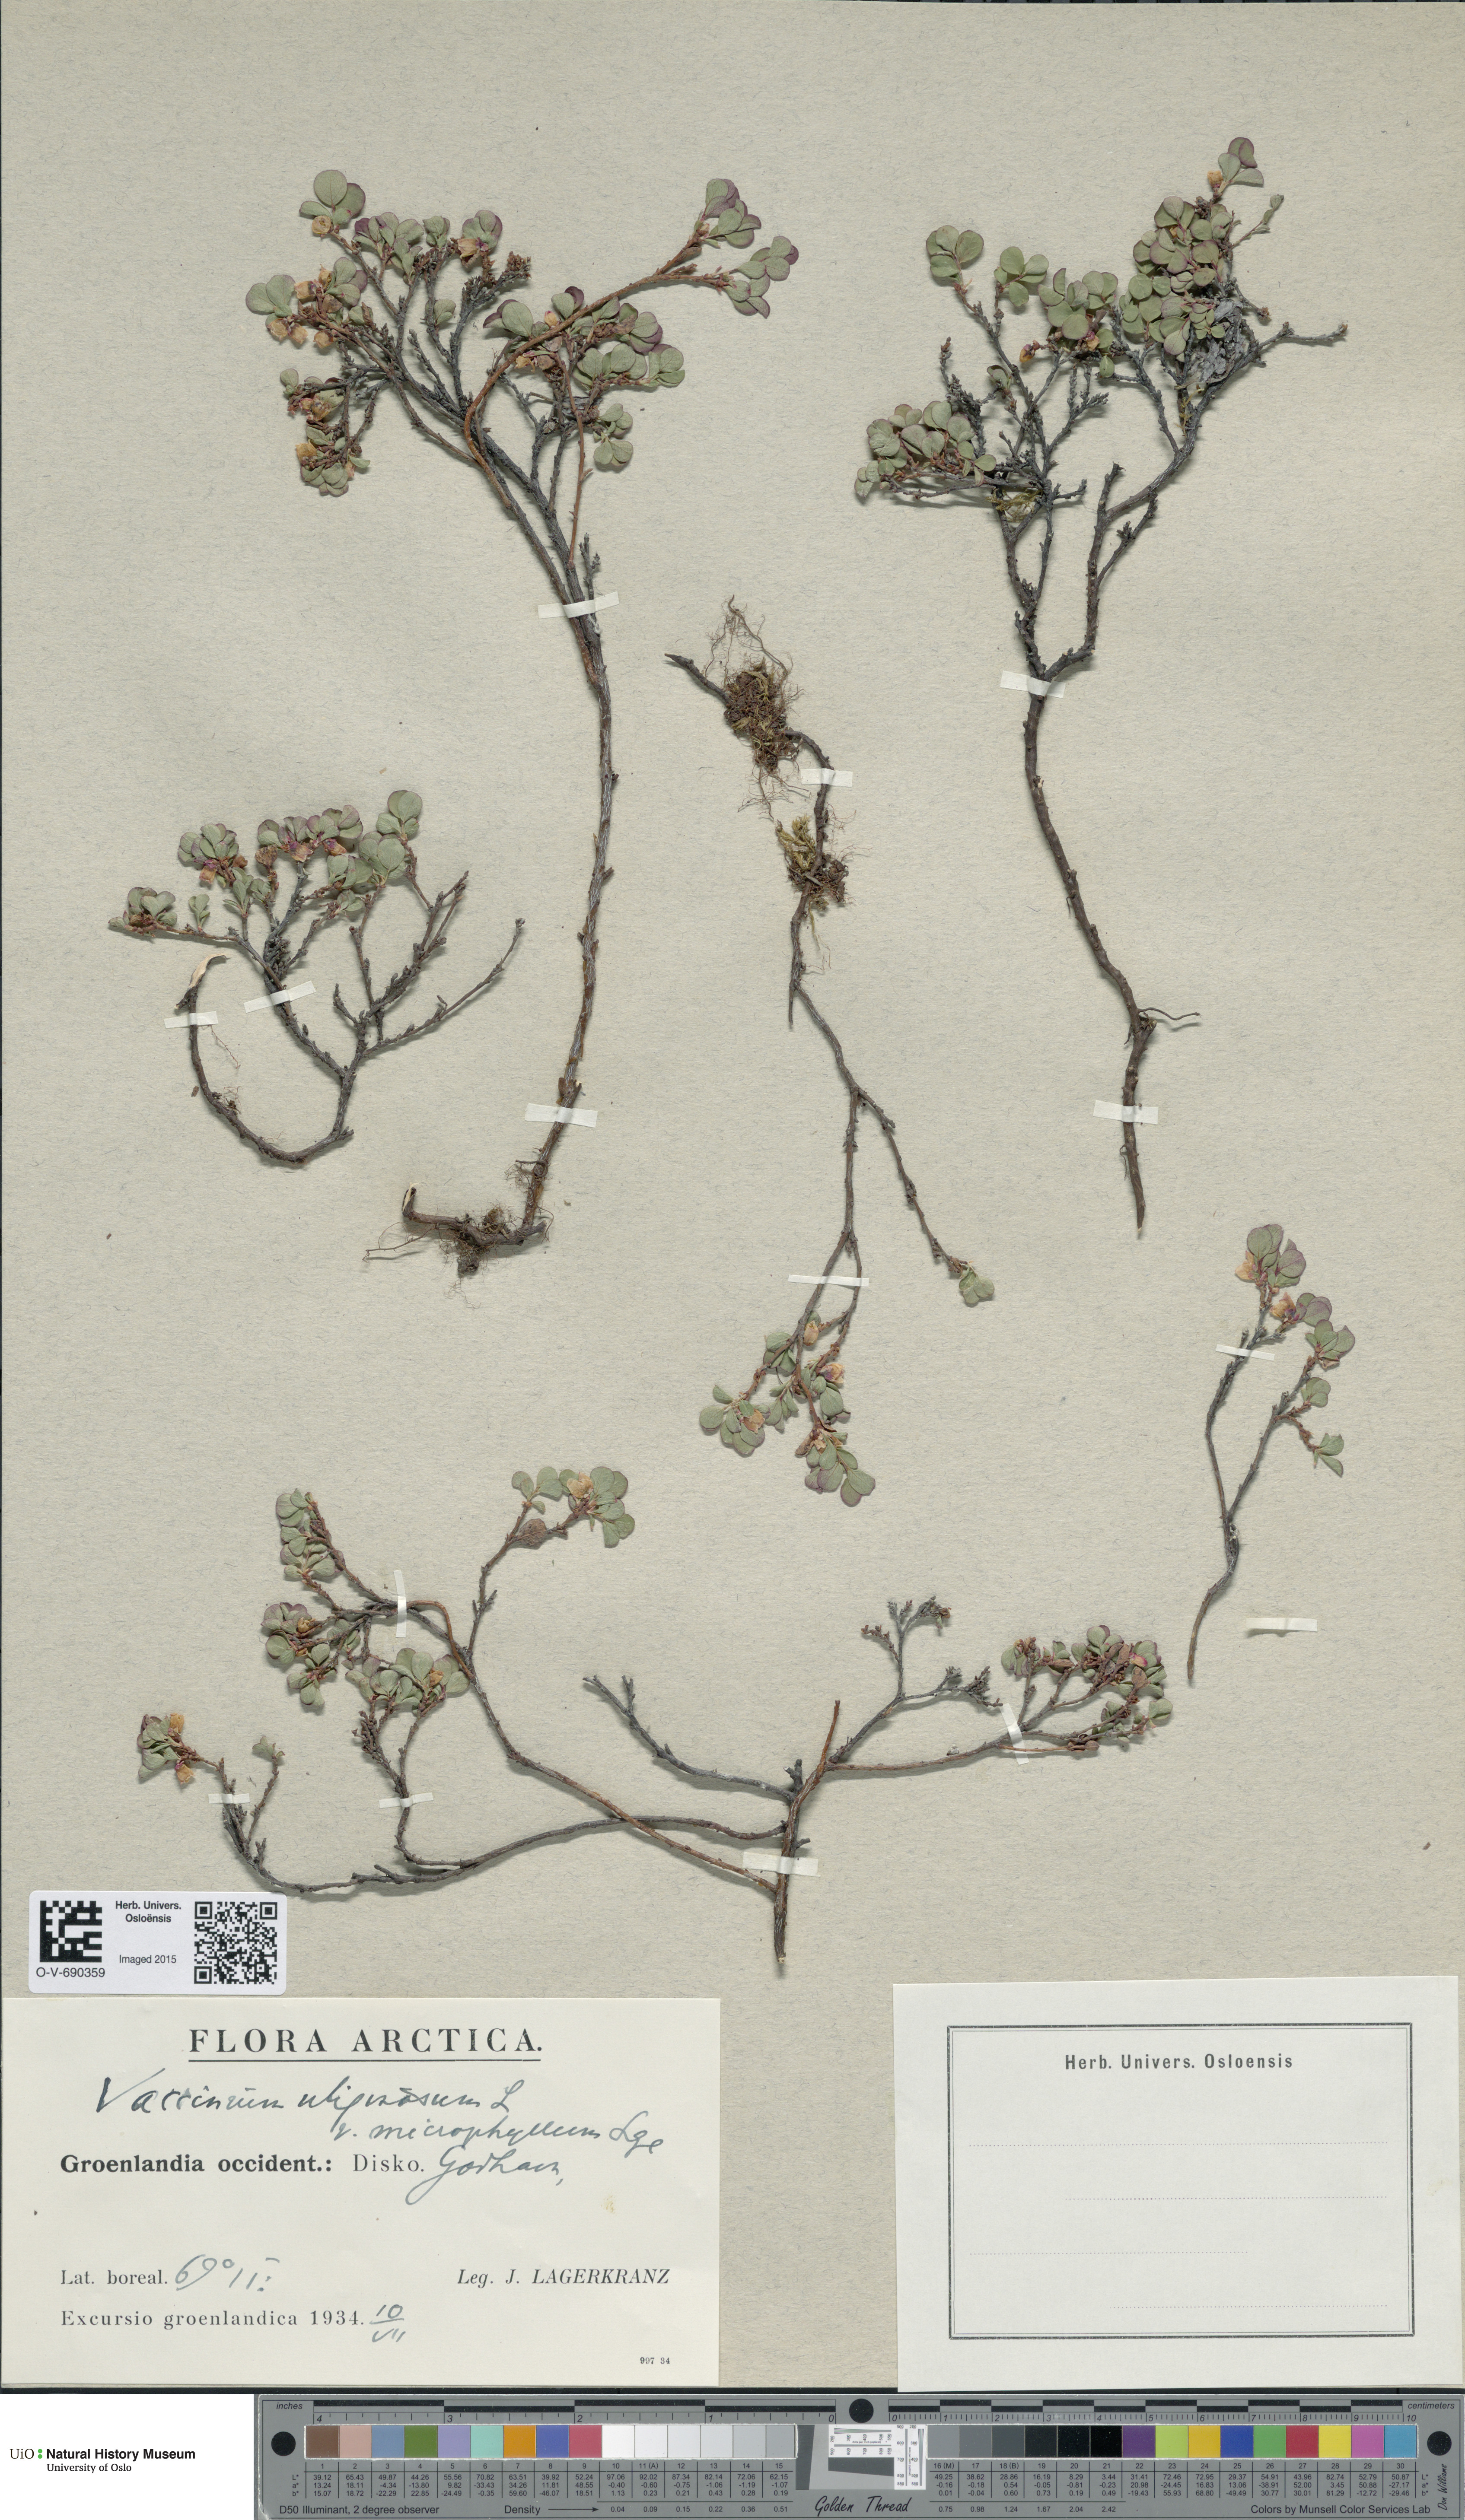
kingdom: Plantae
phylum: Tracheophyta
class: Magnoliopsida
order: Ericales
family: Ericaceae
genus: Vaccinium
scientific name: Vaccinium uliginosum
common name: Bog bilberry
